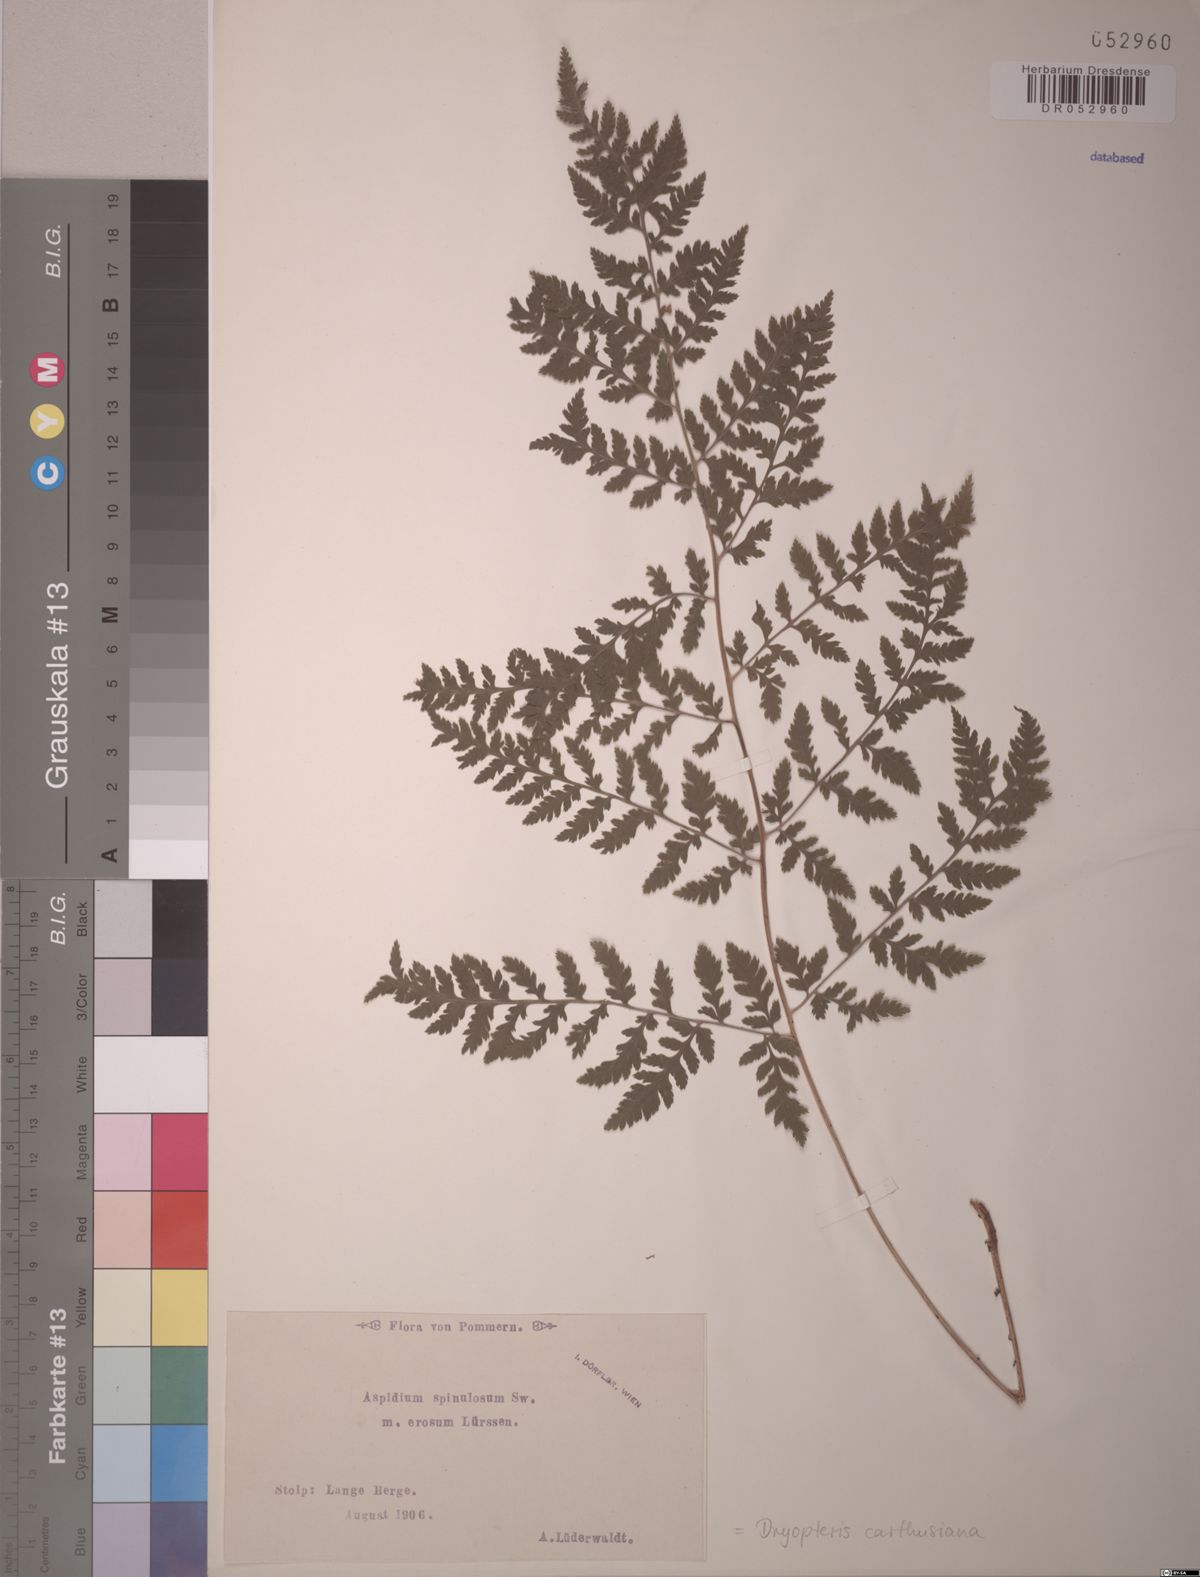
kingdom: Plantae
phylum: Tracheophyta
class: Polypodiopsida
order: Polypodiales
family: Dryopteridaceae
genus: Dryopteris
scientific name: Dryopteris carthusiana
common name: Narrow buckler-fern
